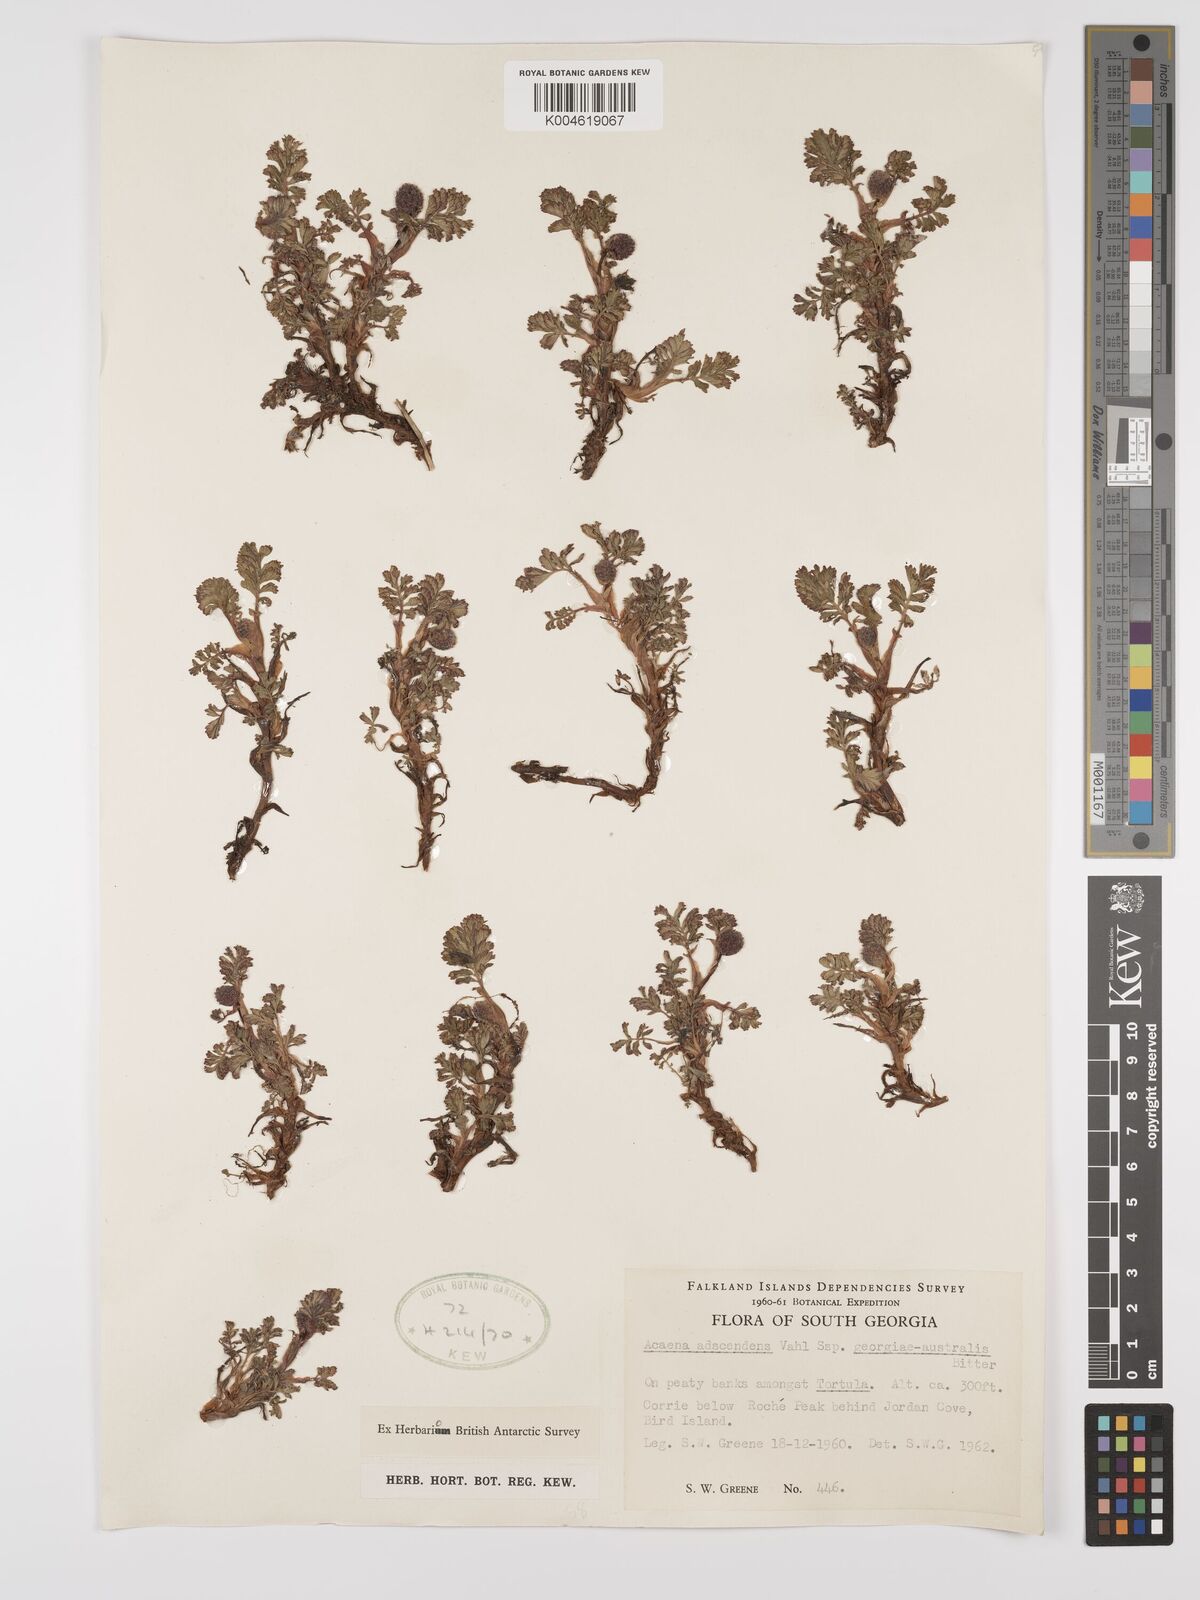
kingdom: Plantae
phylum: Tracheophyta
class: Magnoliopsida
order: Rosales
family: Rosaceae
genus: Acaena
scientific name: Acaena magellanica
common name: New zealand burr
